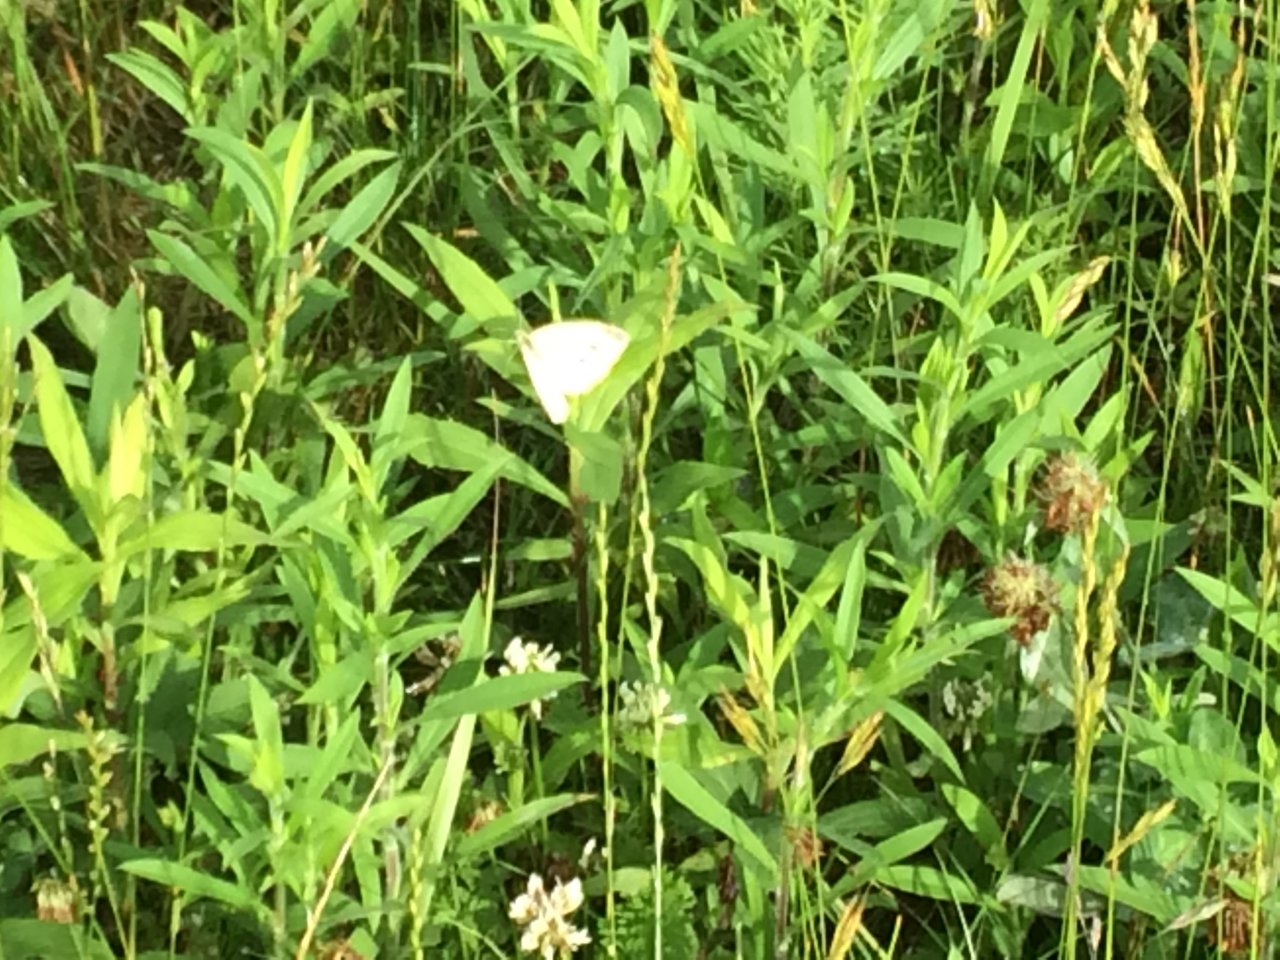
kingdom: Animalia
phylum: Arthropoda
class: Insecta
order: Lepidoptera
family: Pieridae
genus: Pieris
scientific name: Pieris rapae
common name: Cabbage White
